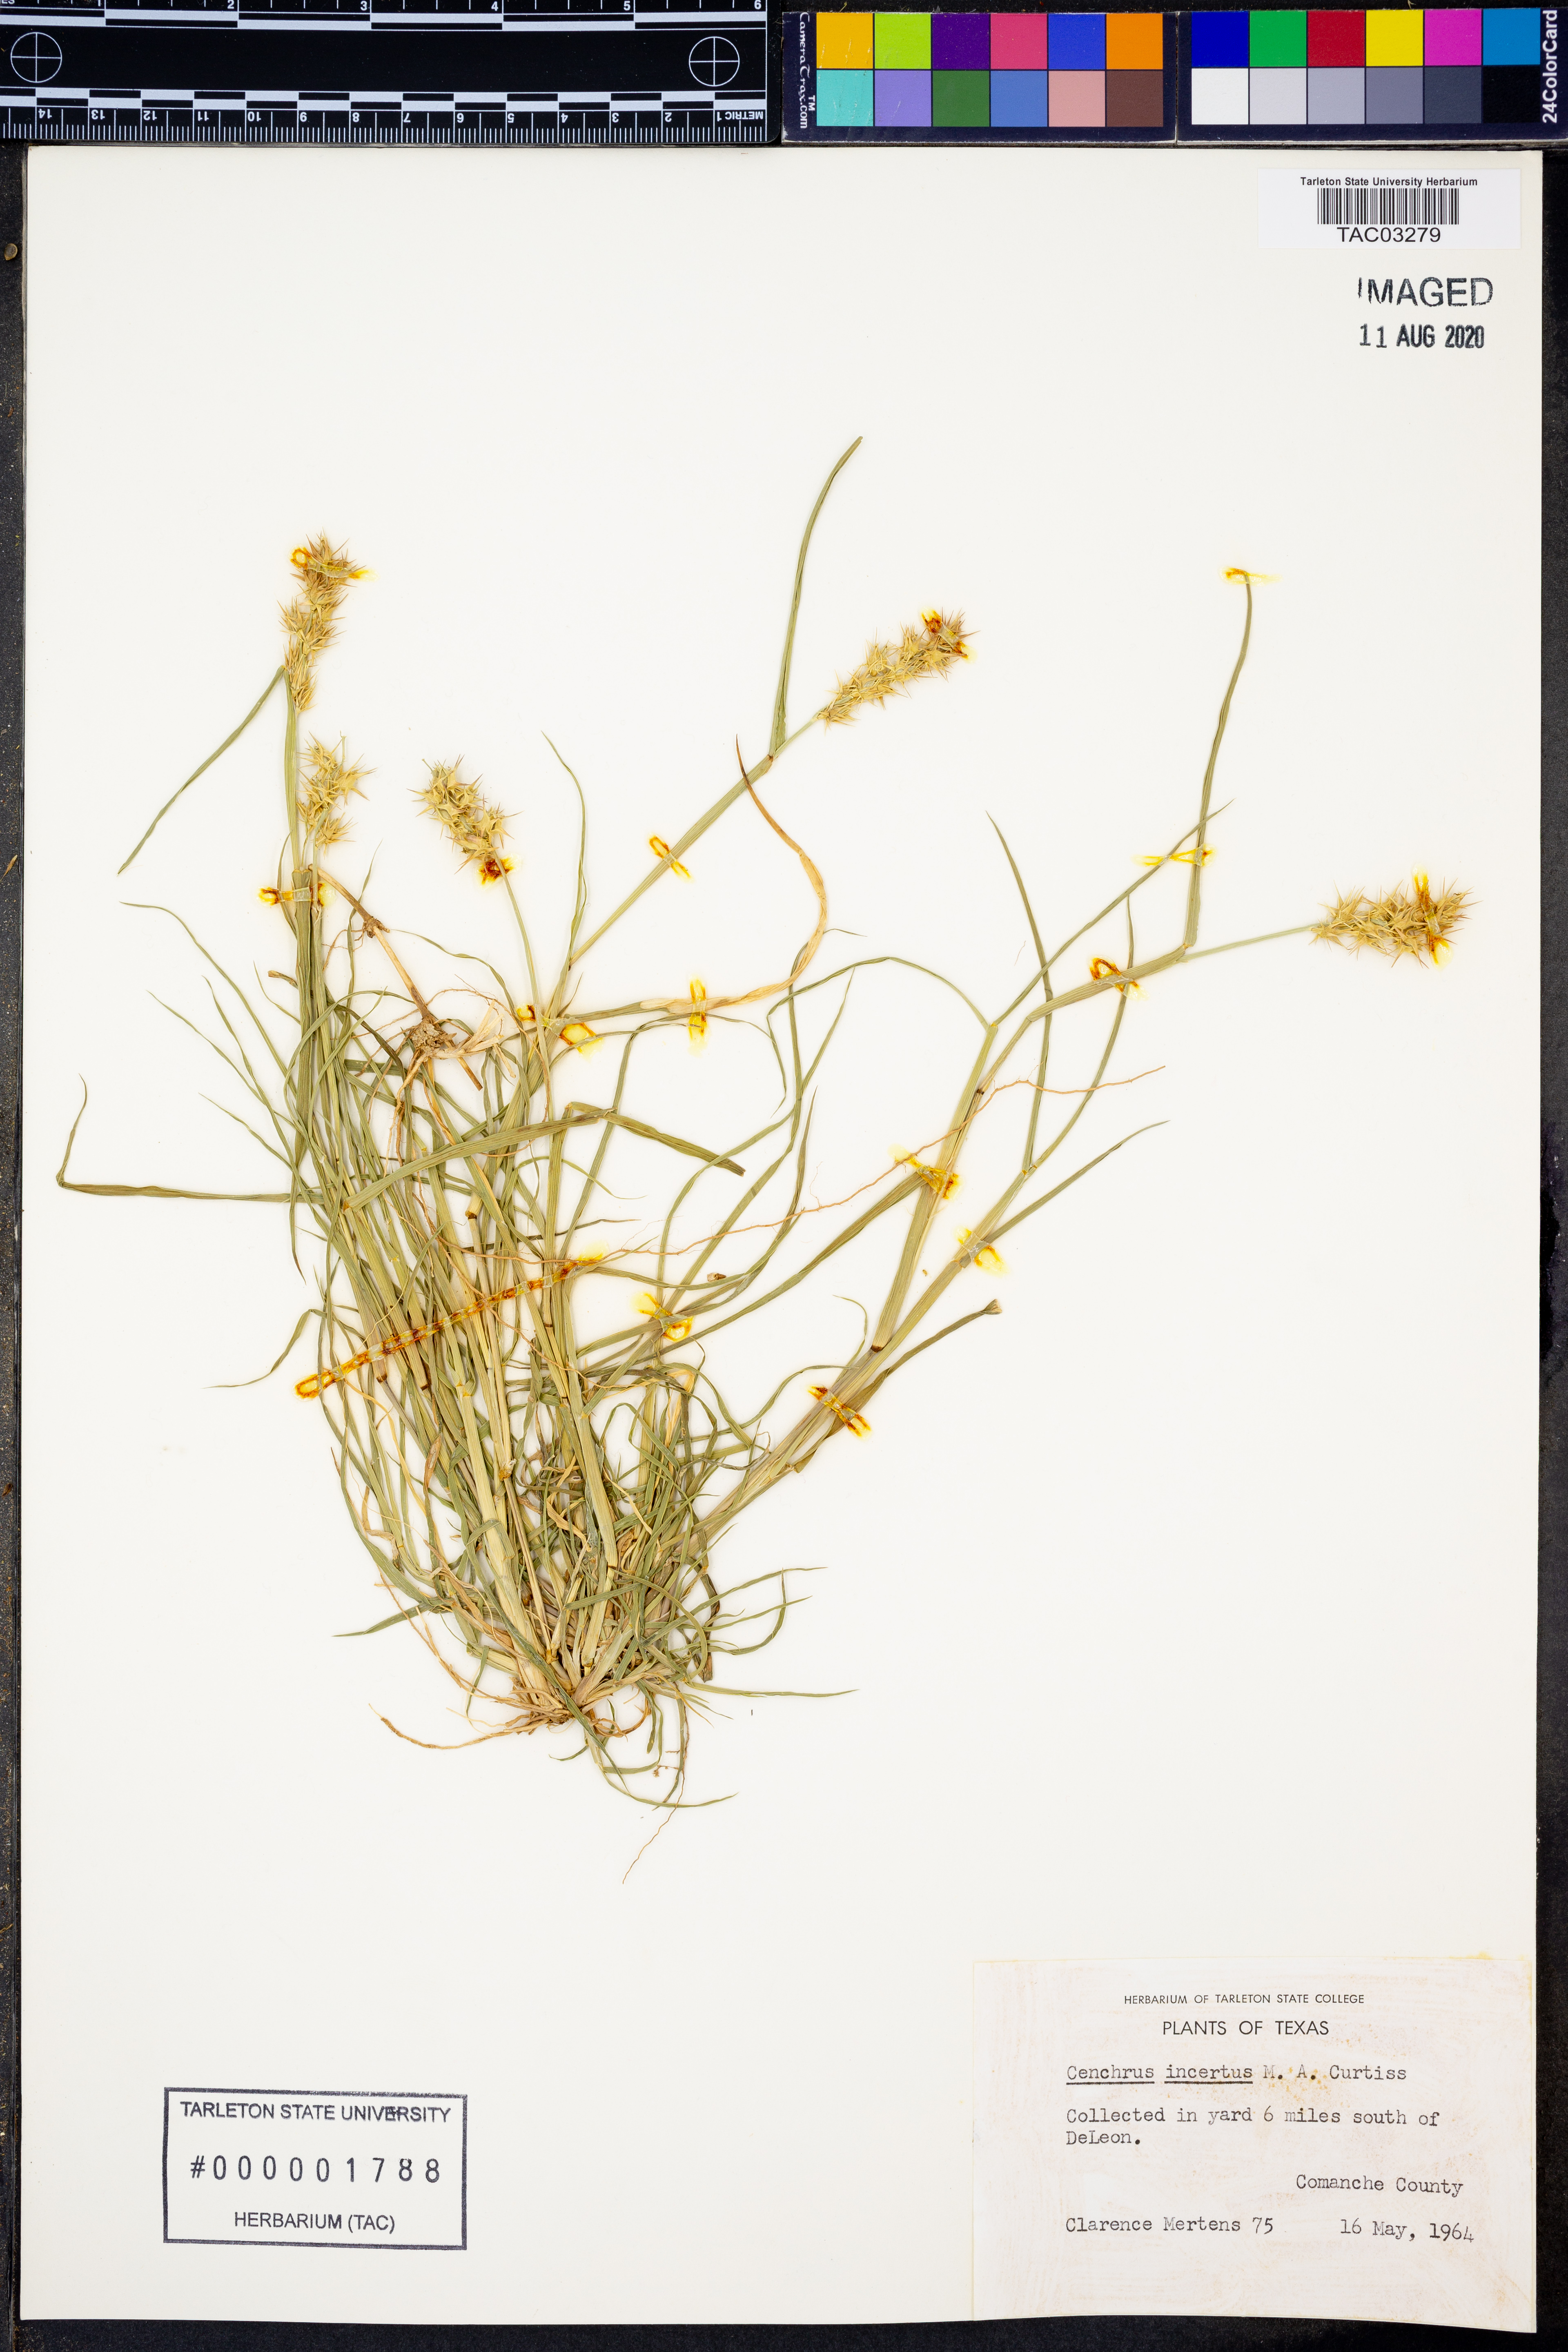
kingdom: Plantae
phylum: Tracheophyta
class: Liliopsida
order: Poales
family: Poaceae
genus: Cenchrus
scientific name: Cenchrus spinifex
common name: Coast sandbur
